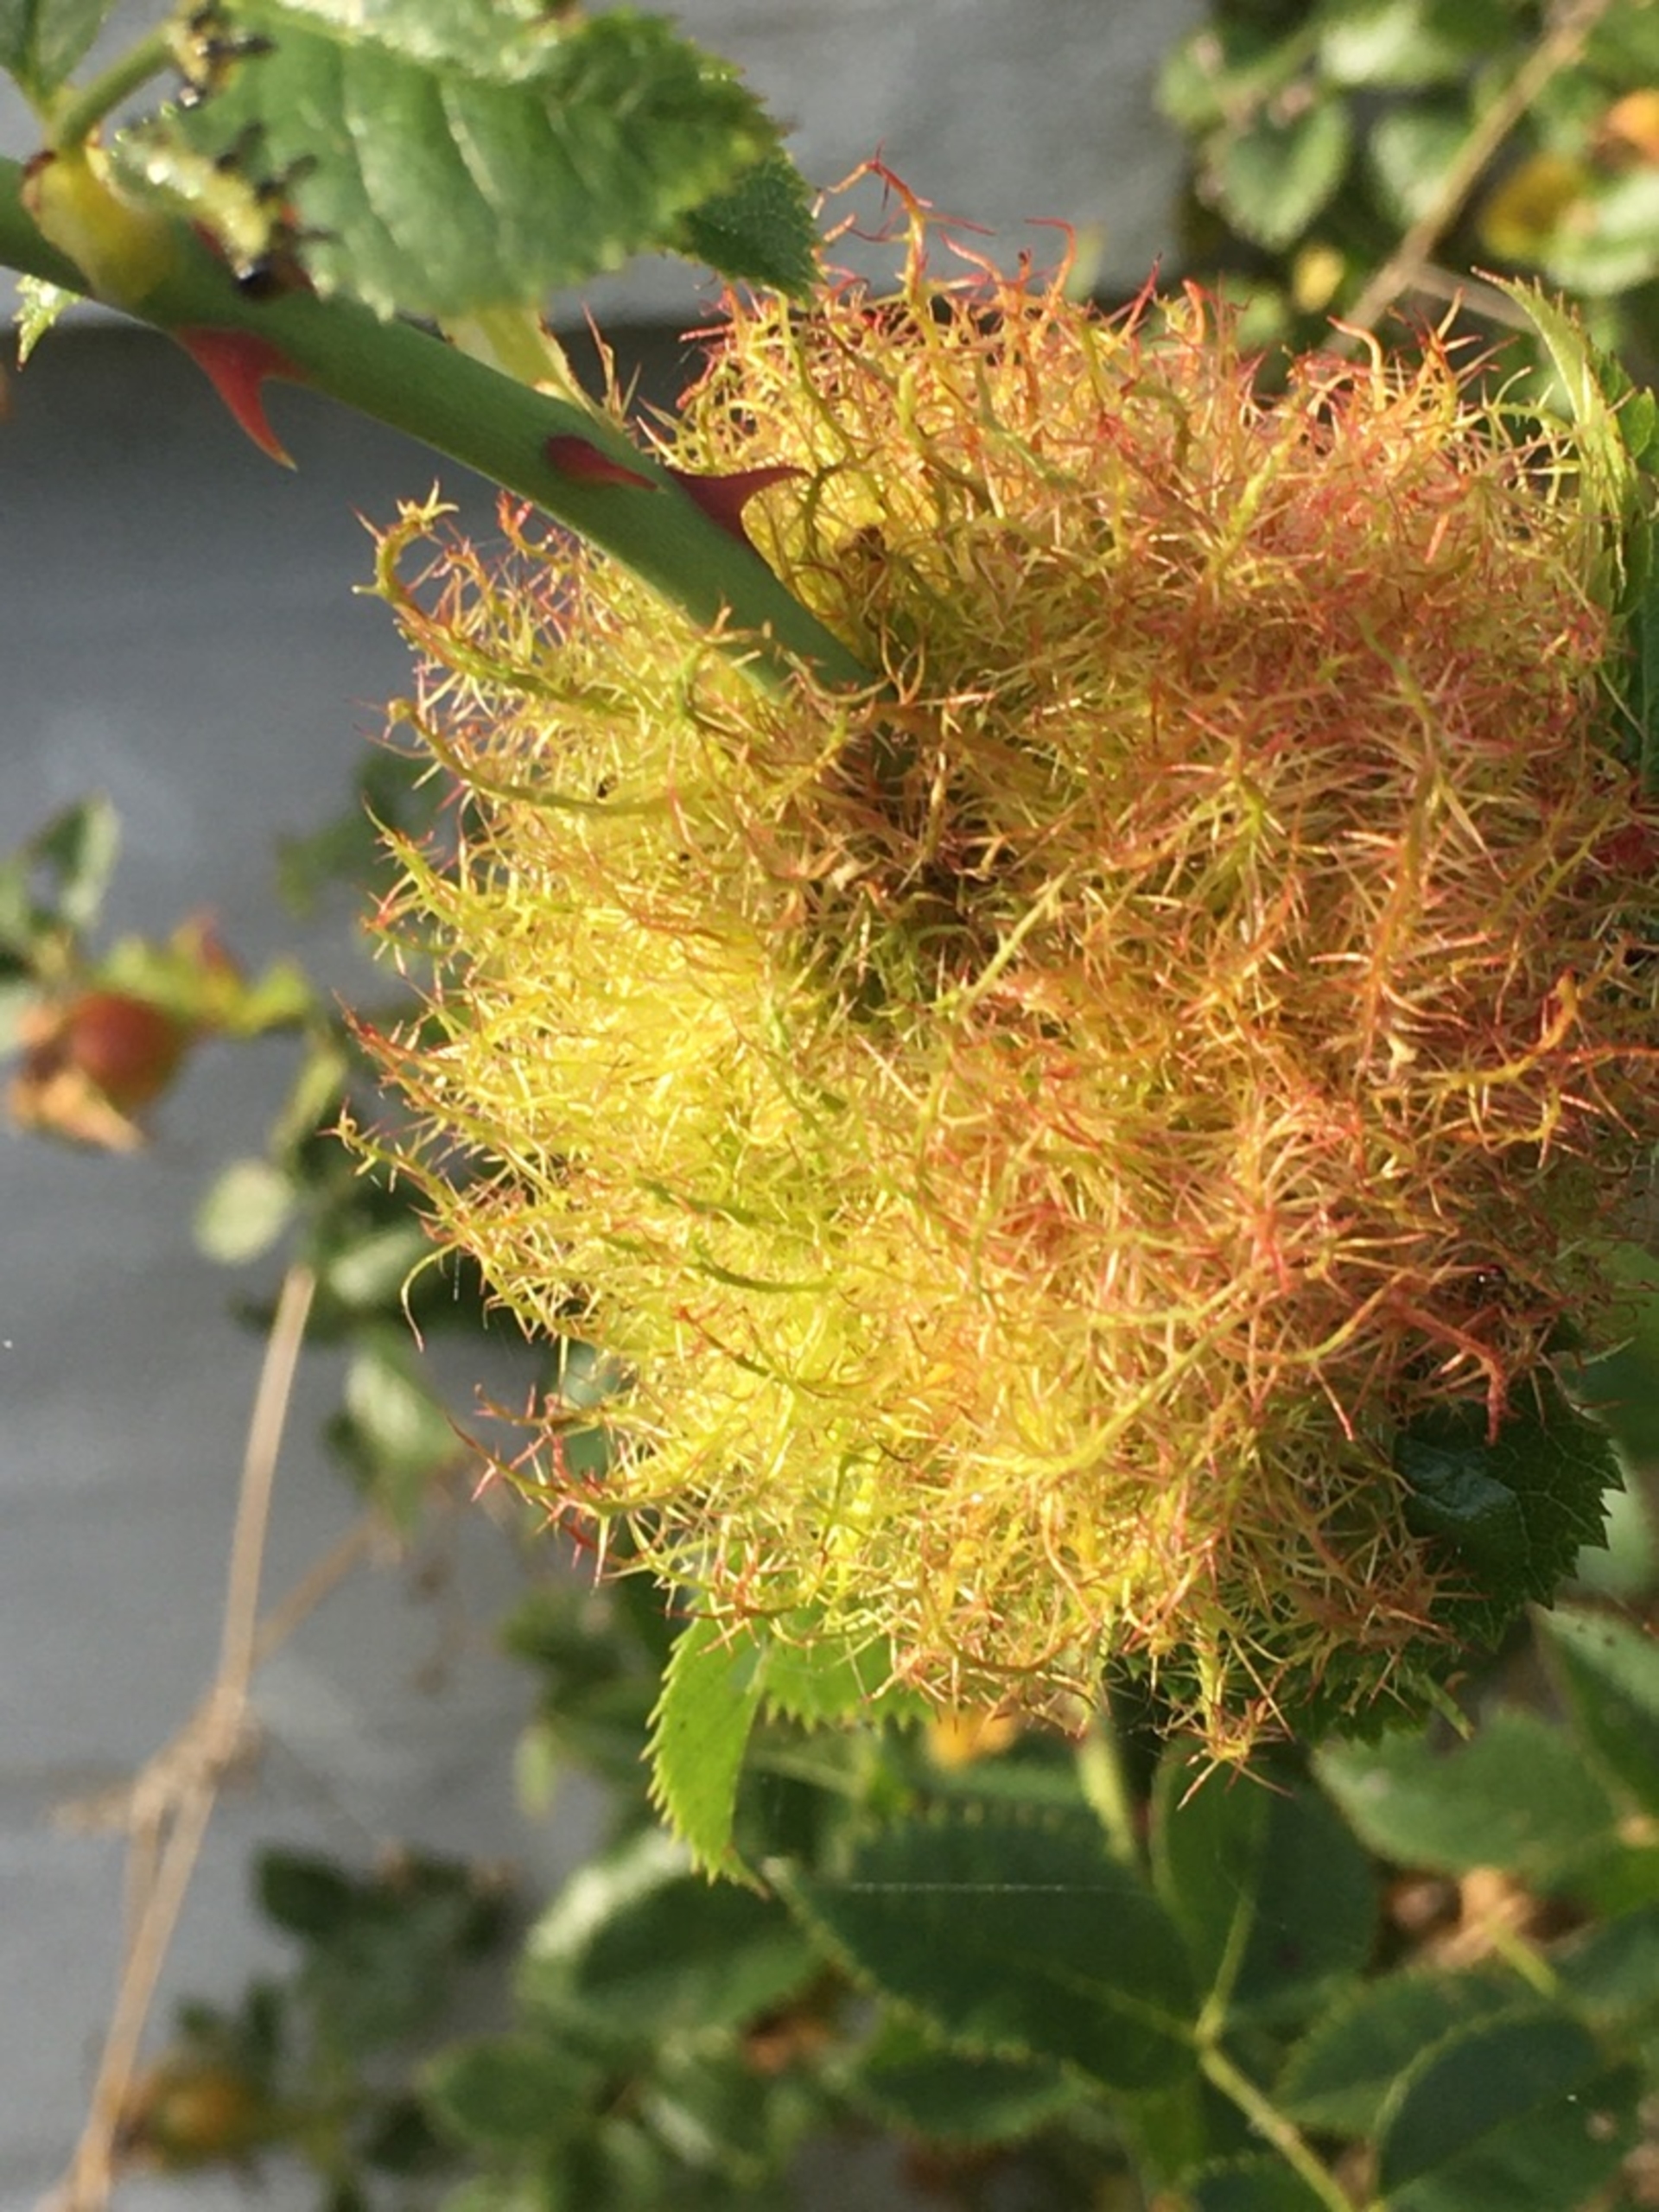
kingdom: Animalia
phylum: Arthropoda
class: Insecta
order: Hymenoptera
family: Cynipidae
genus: Diplolepis
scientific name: Diplolepis rosae
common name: Bedeguargalhveps
